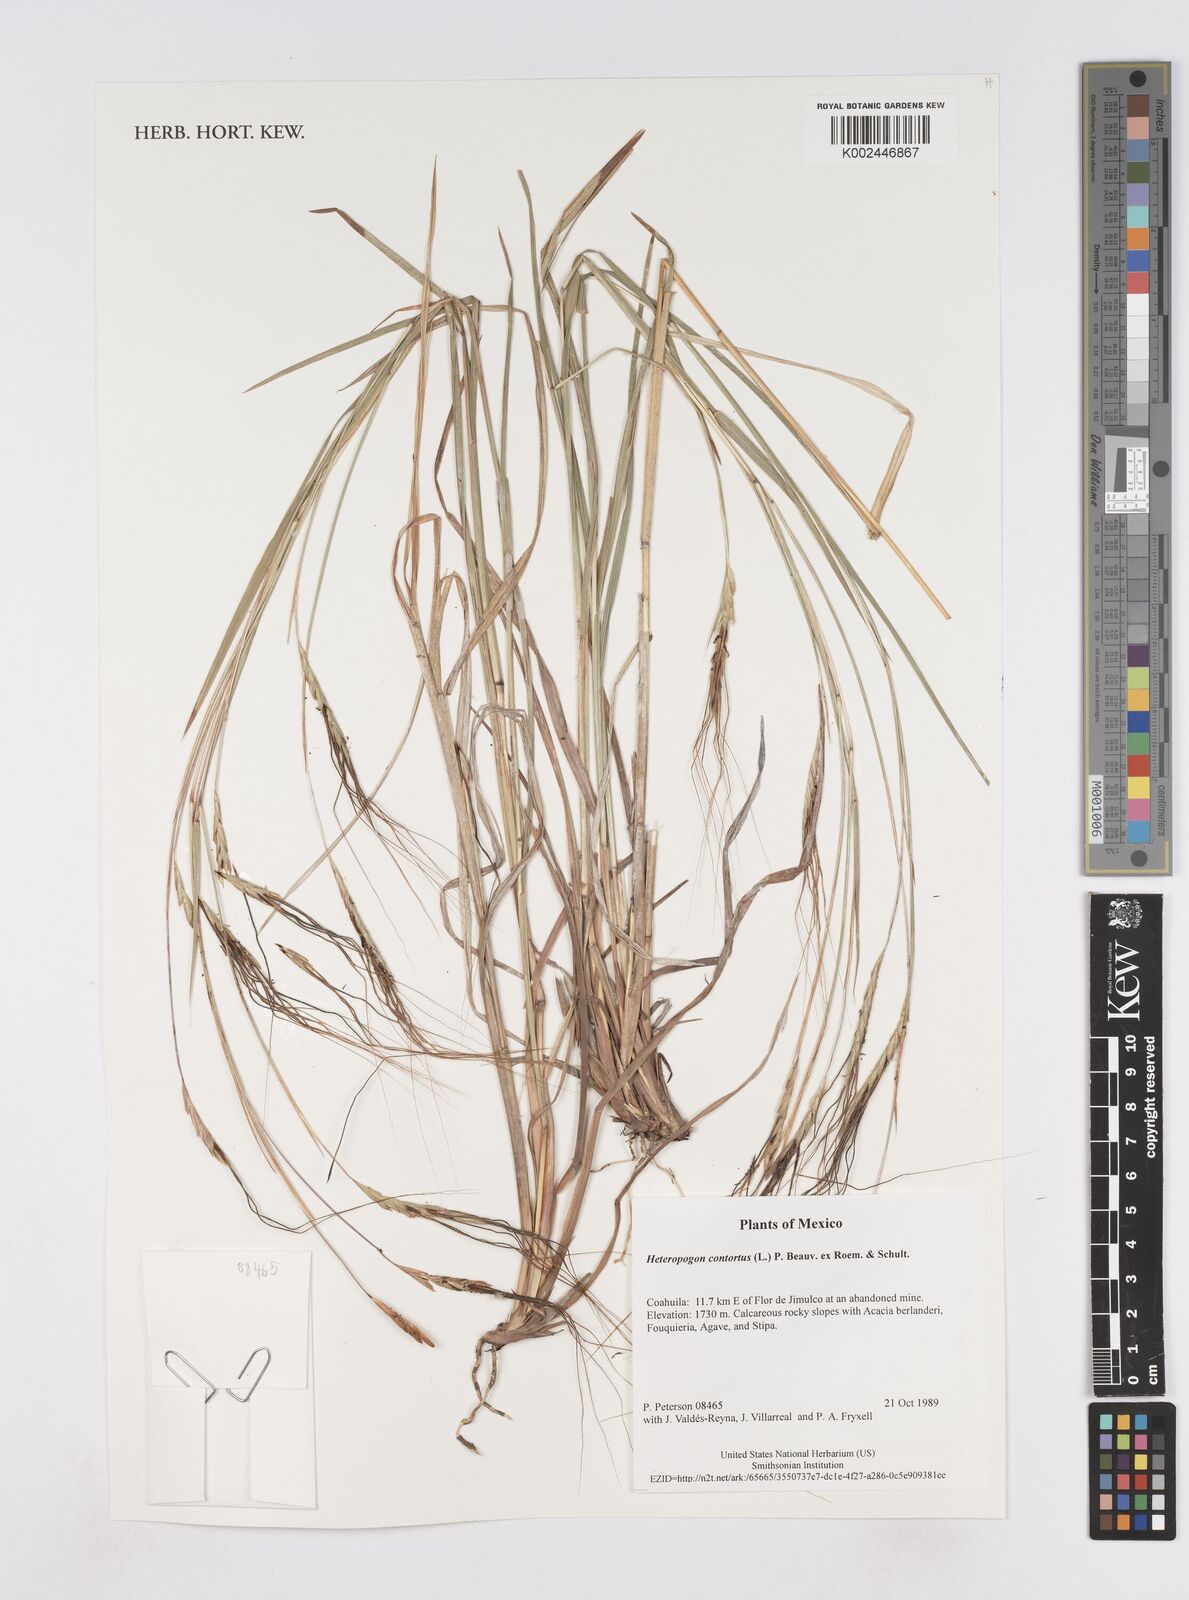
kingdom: Plantae
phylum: Tracheophyta
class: Liliopsida
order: Poales
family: Poaceae
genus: Heteropogon
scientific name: Heteropogon contortus
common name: Tanglehead
